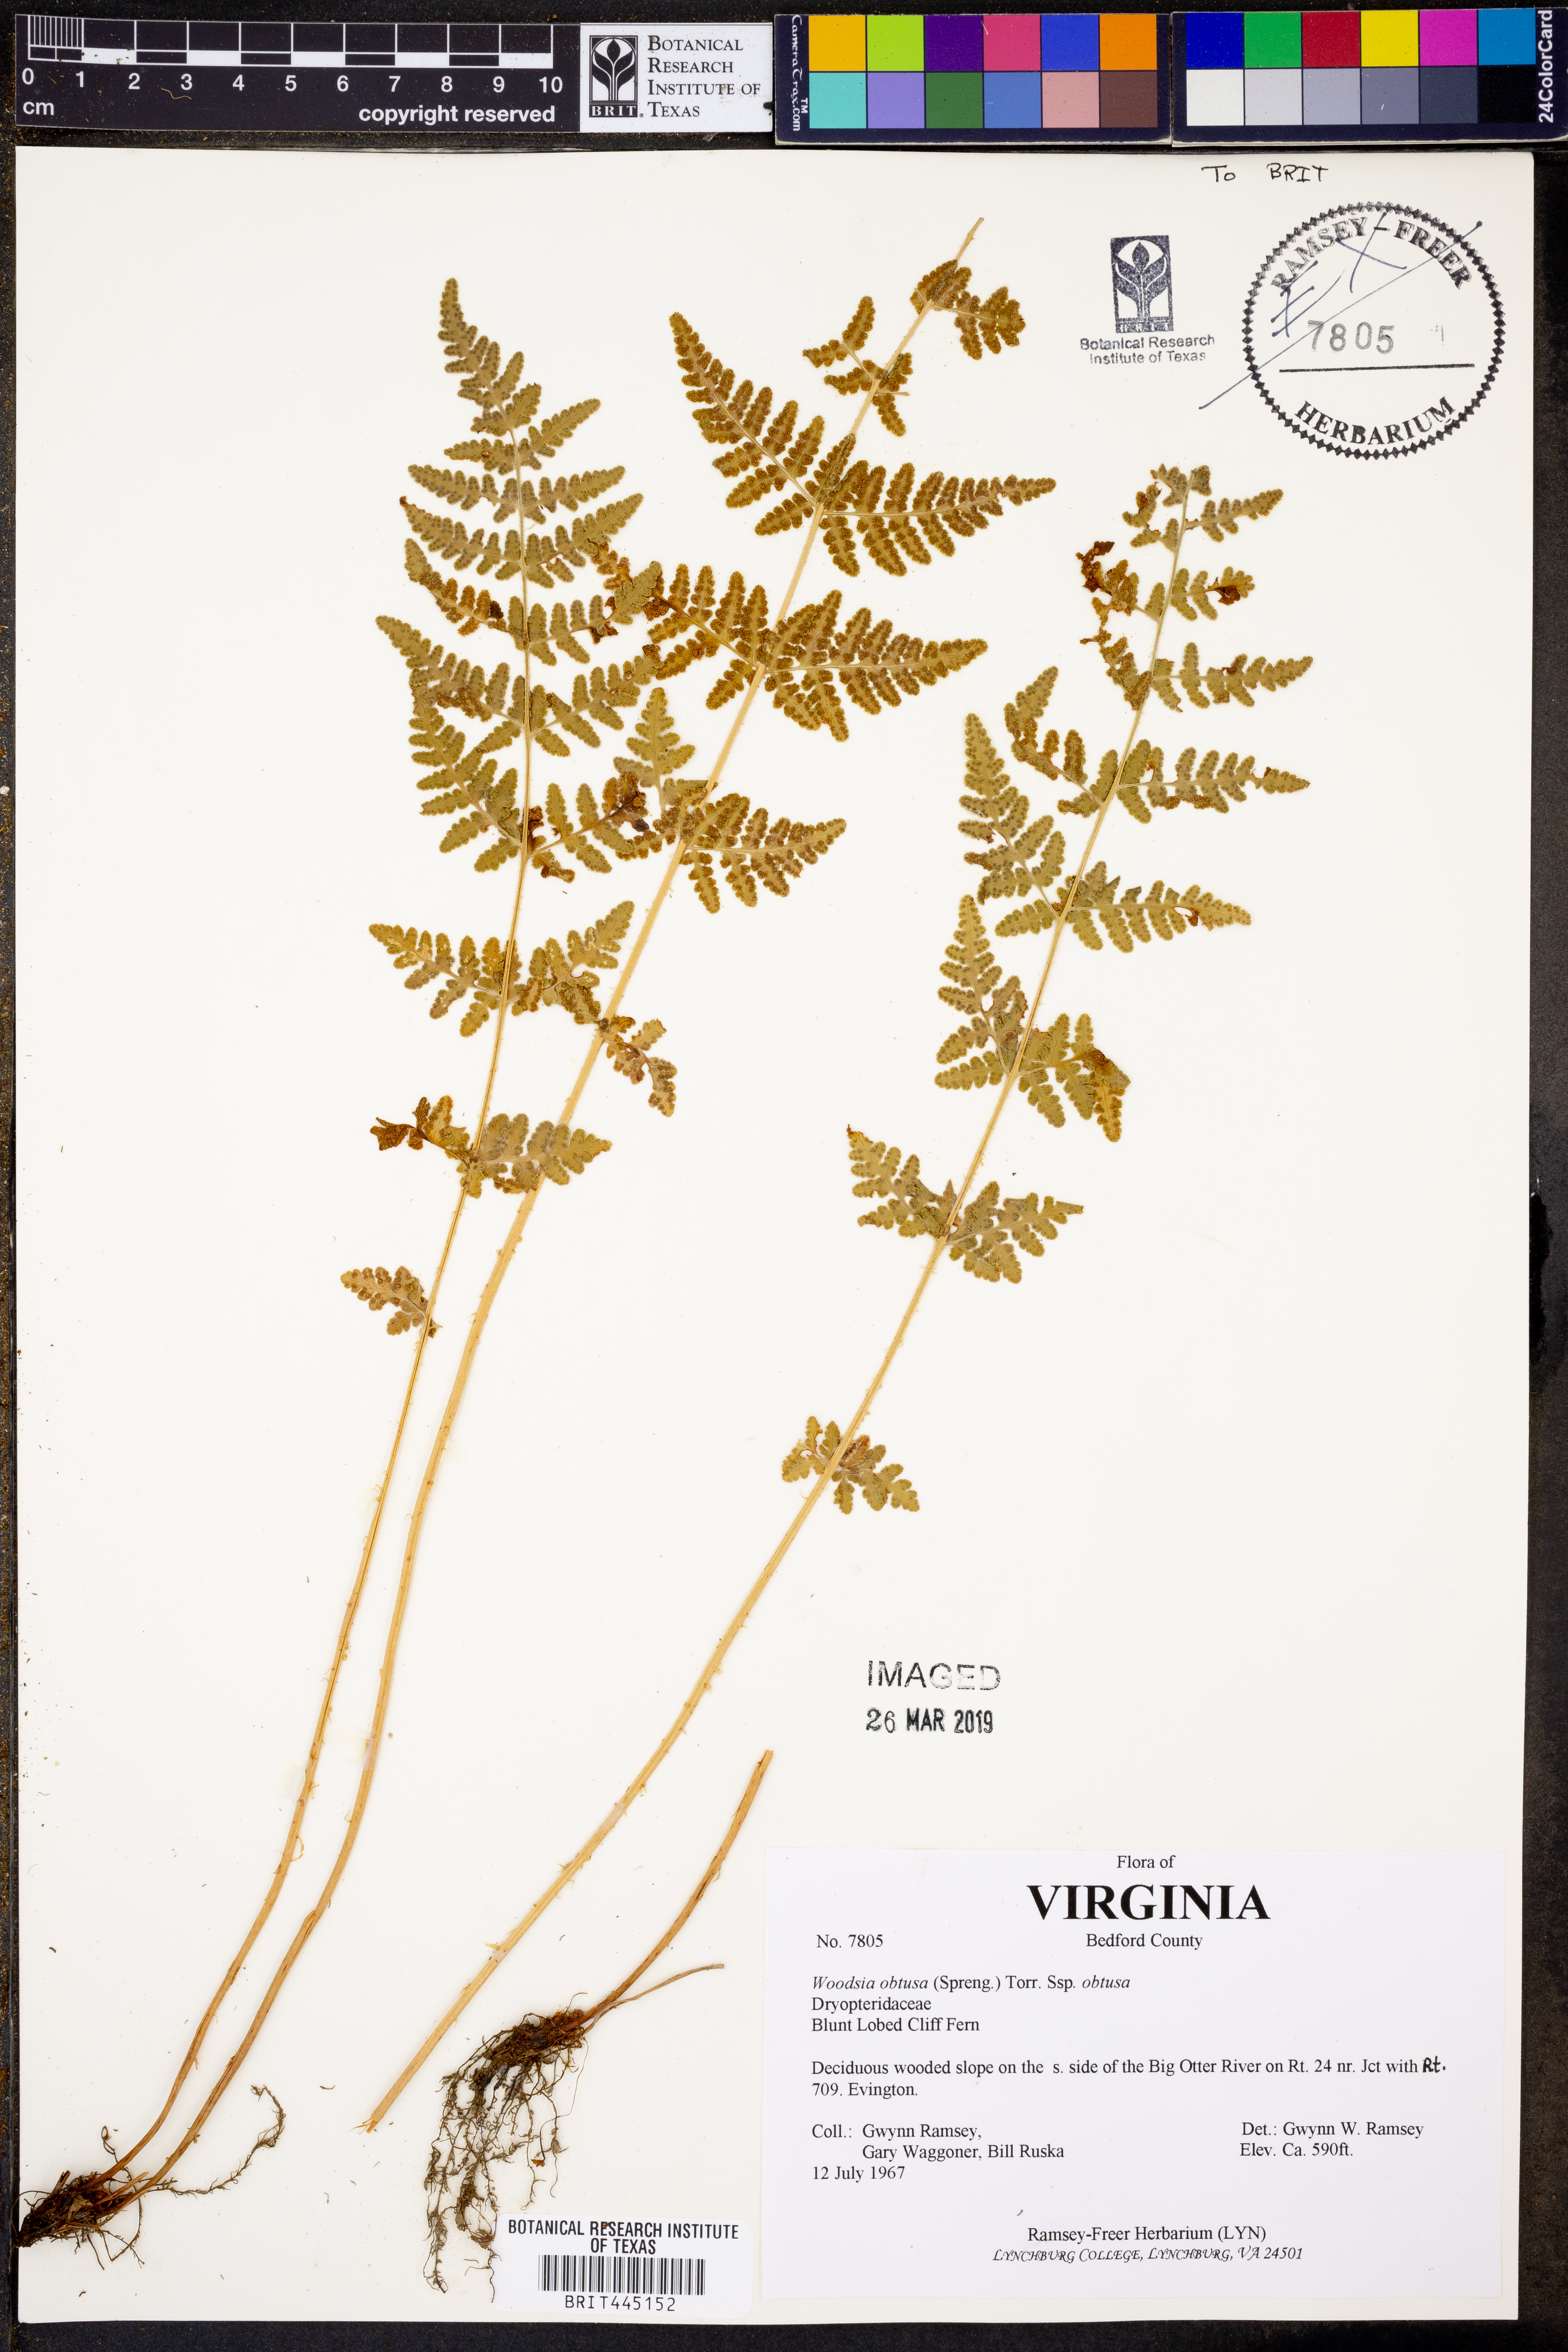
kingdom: Plantae
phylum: Tracheophyta
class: Polypodiopsida
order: Polypodiales
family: Woodsiaceae
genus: Physematium
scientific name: Physematium obtusum
